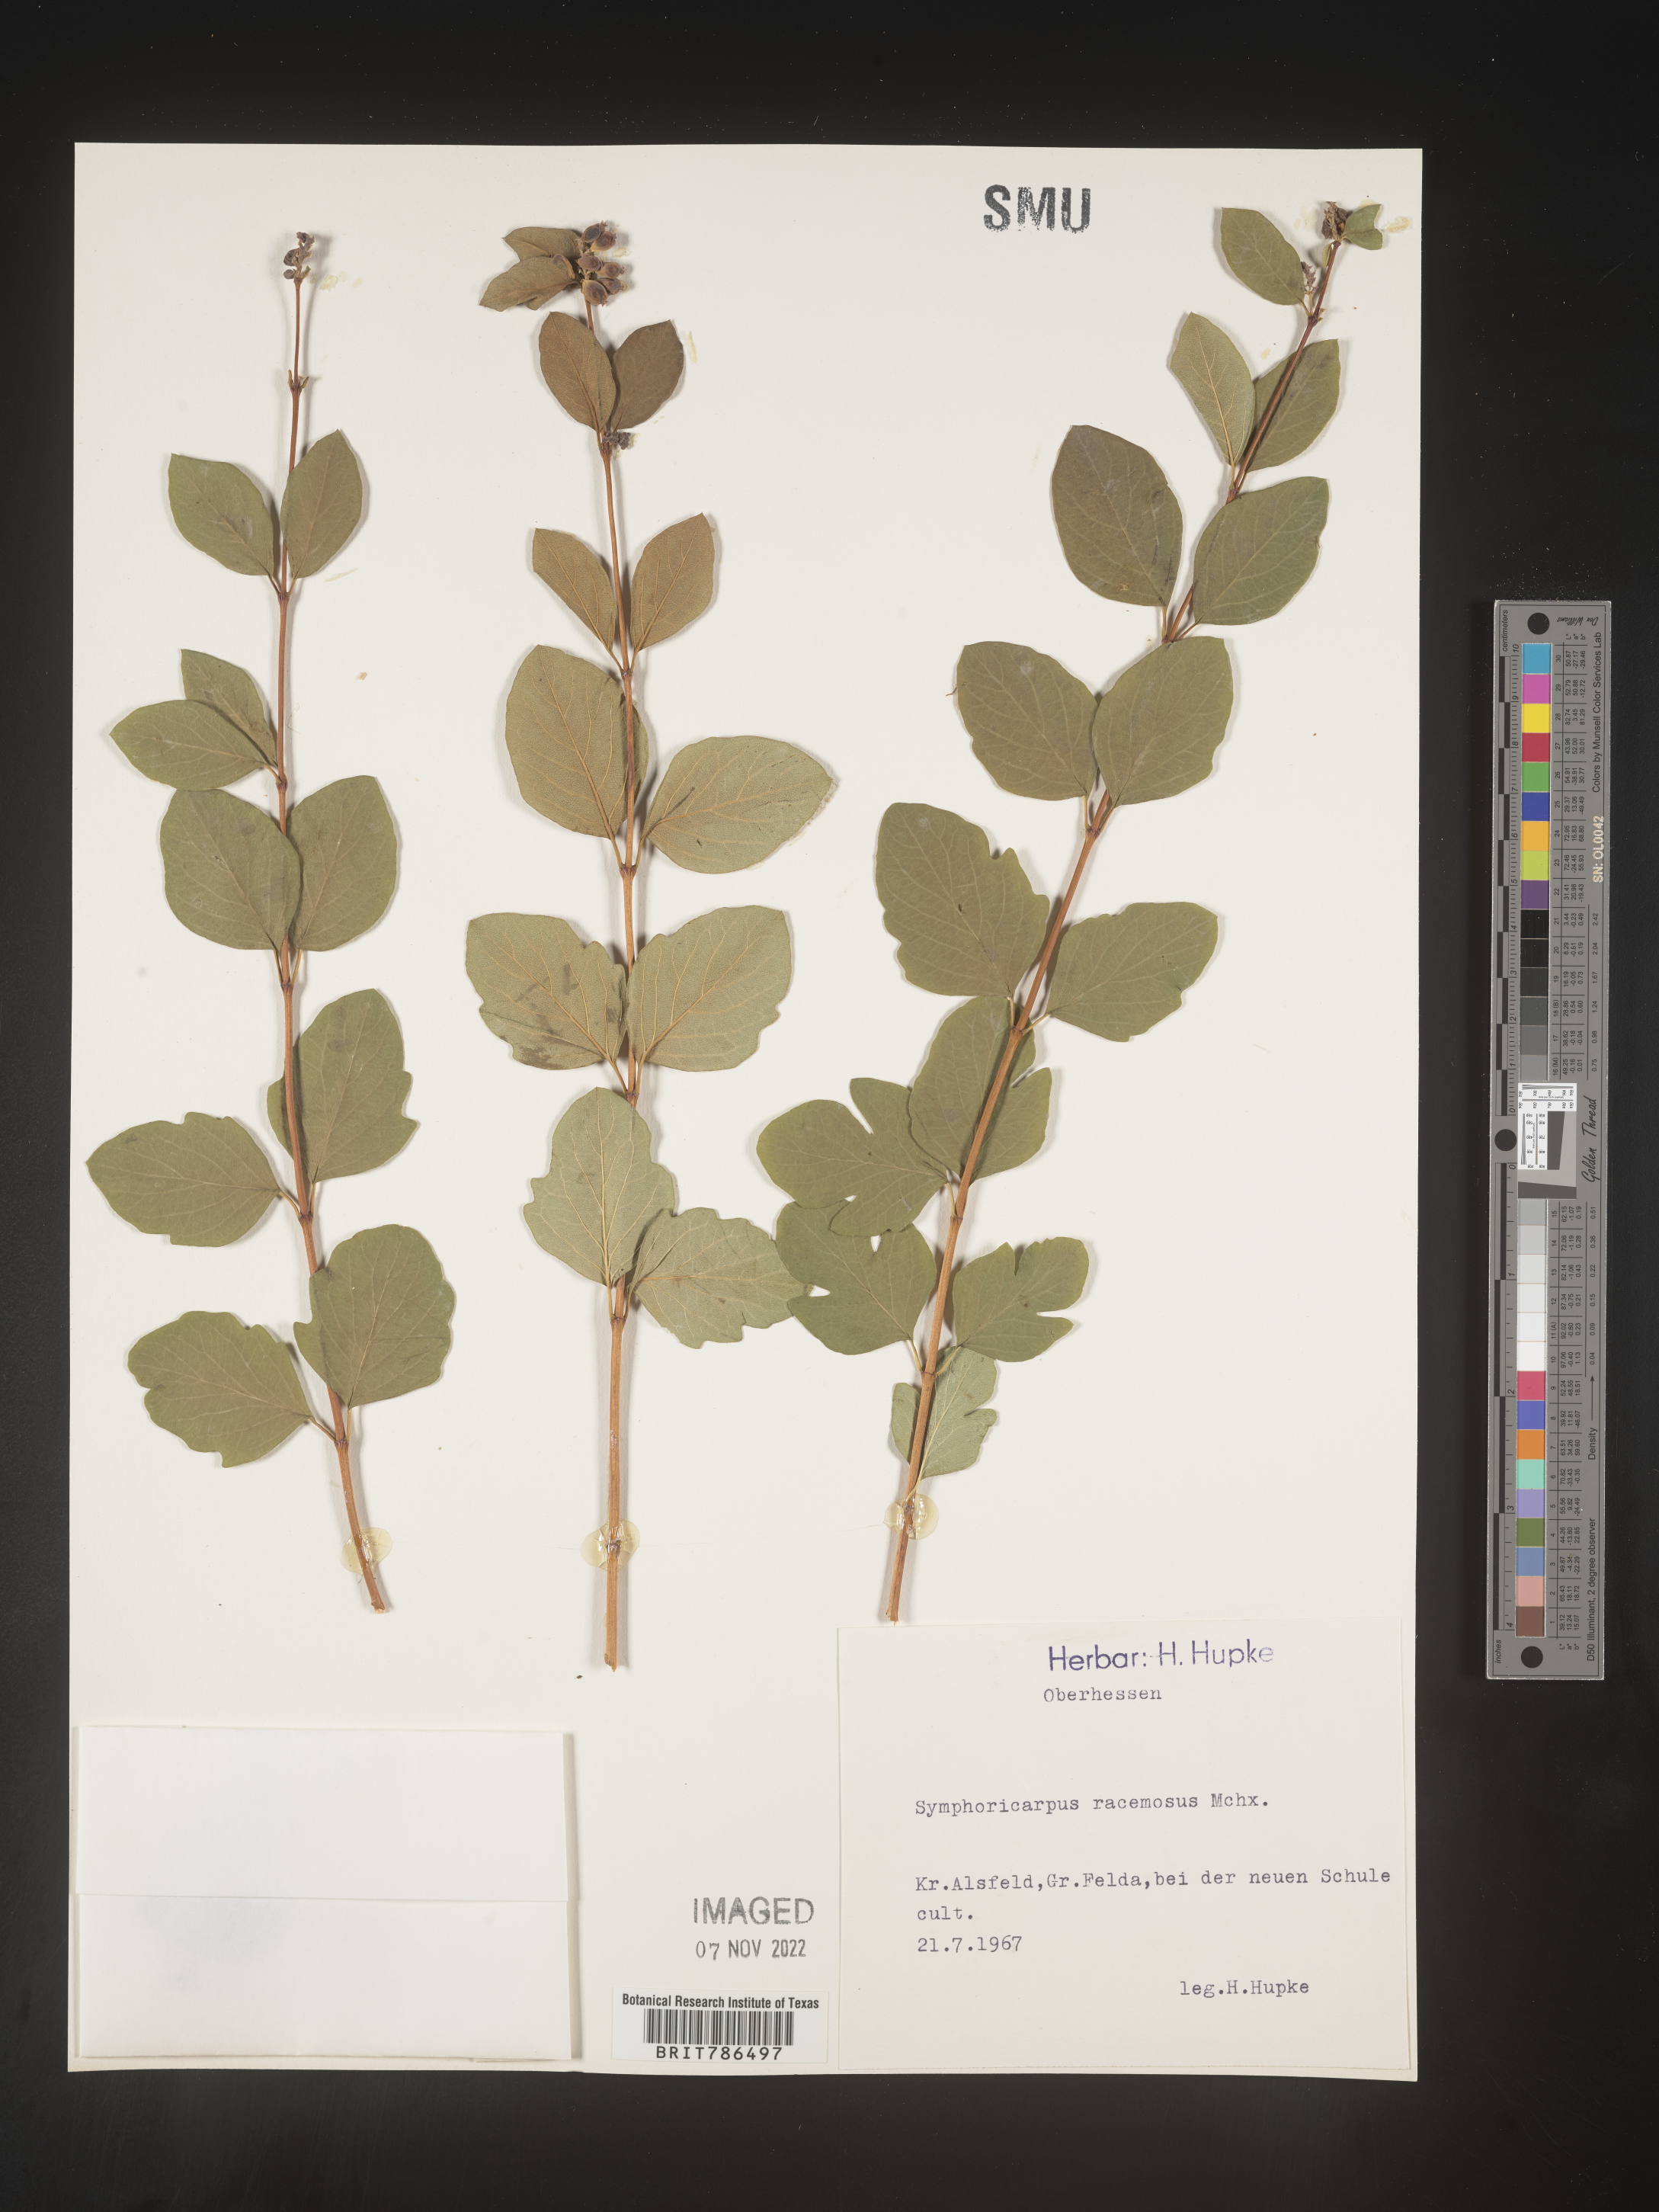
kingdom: Plantae
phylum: Tracheophyta
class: Magnoliopsida
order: Dipsacales
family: Caprifoliaceae
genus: Symphoricarpos
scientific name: Symphoricarpos
